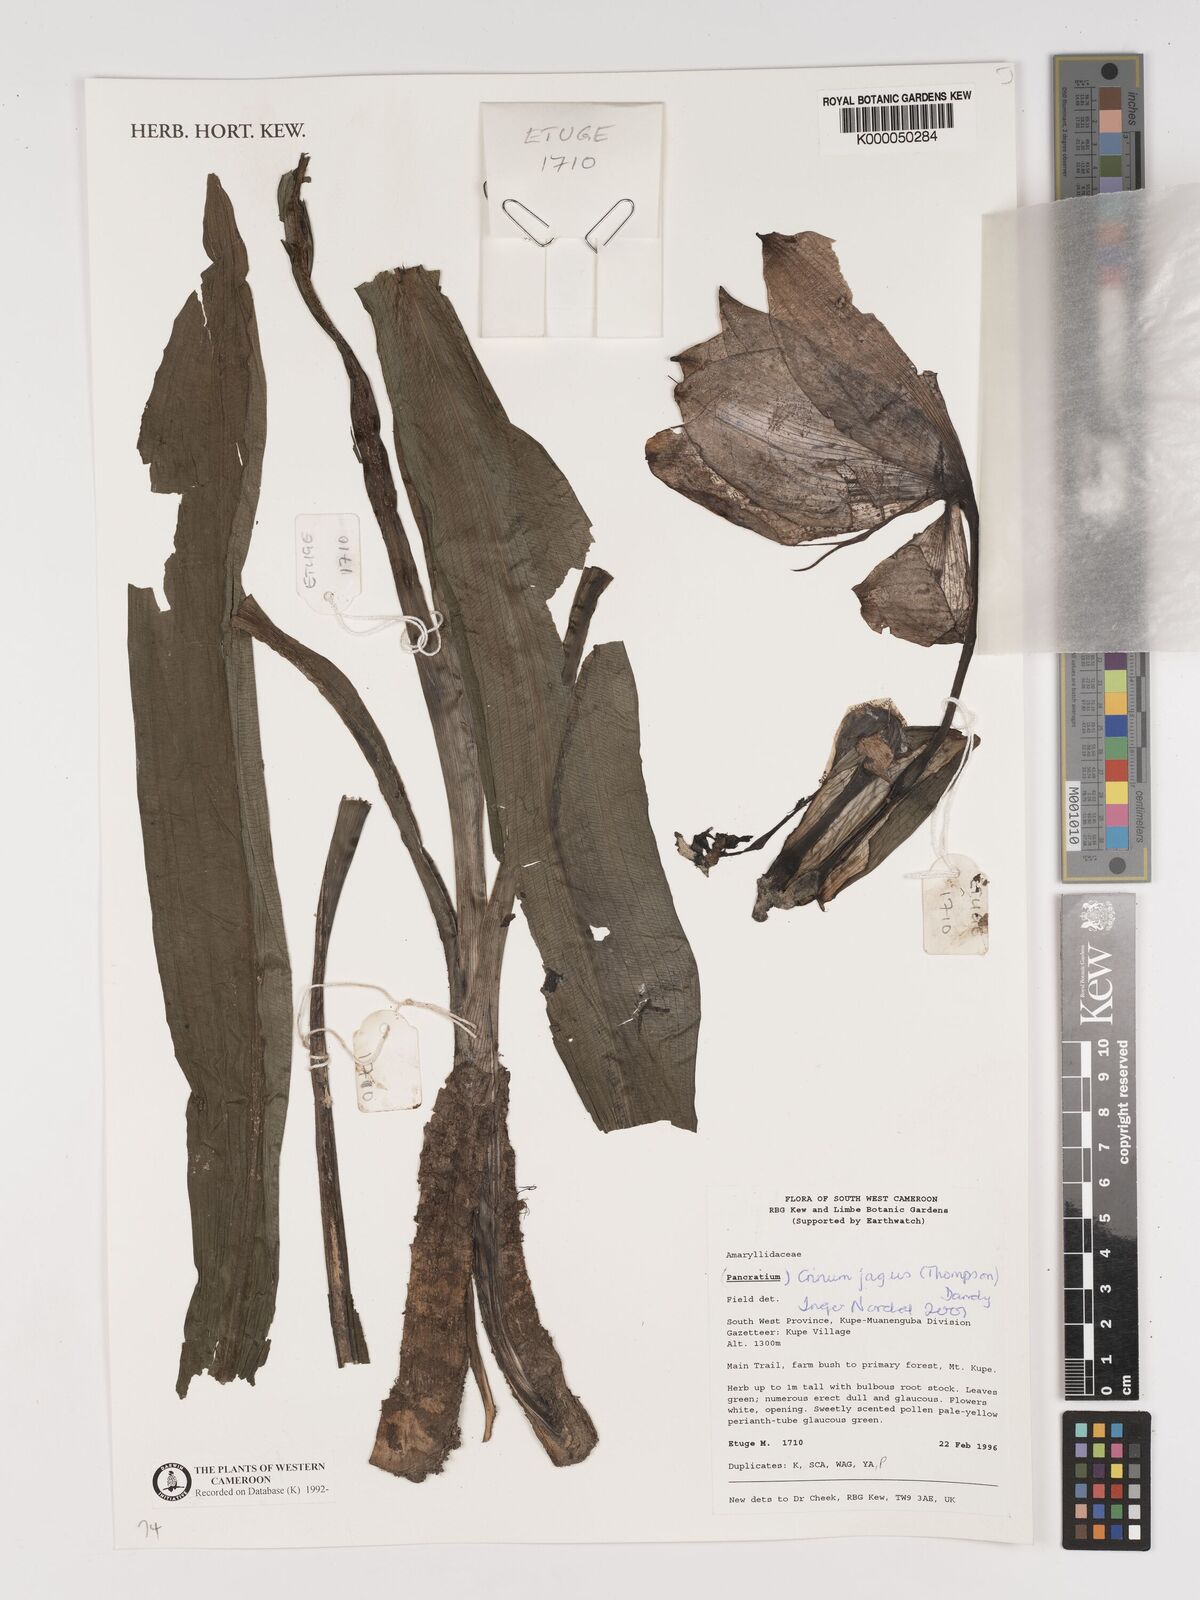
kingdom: Plantae
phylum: Tracheophyta
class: Liliopsida
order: Asparagales
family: Amaryllidaceae
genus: Crinum
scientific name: Crinum jagus
